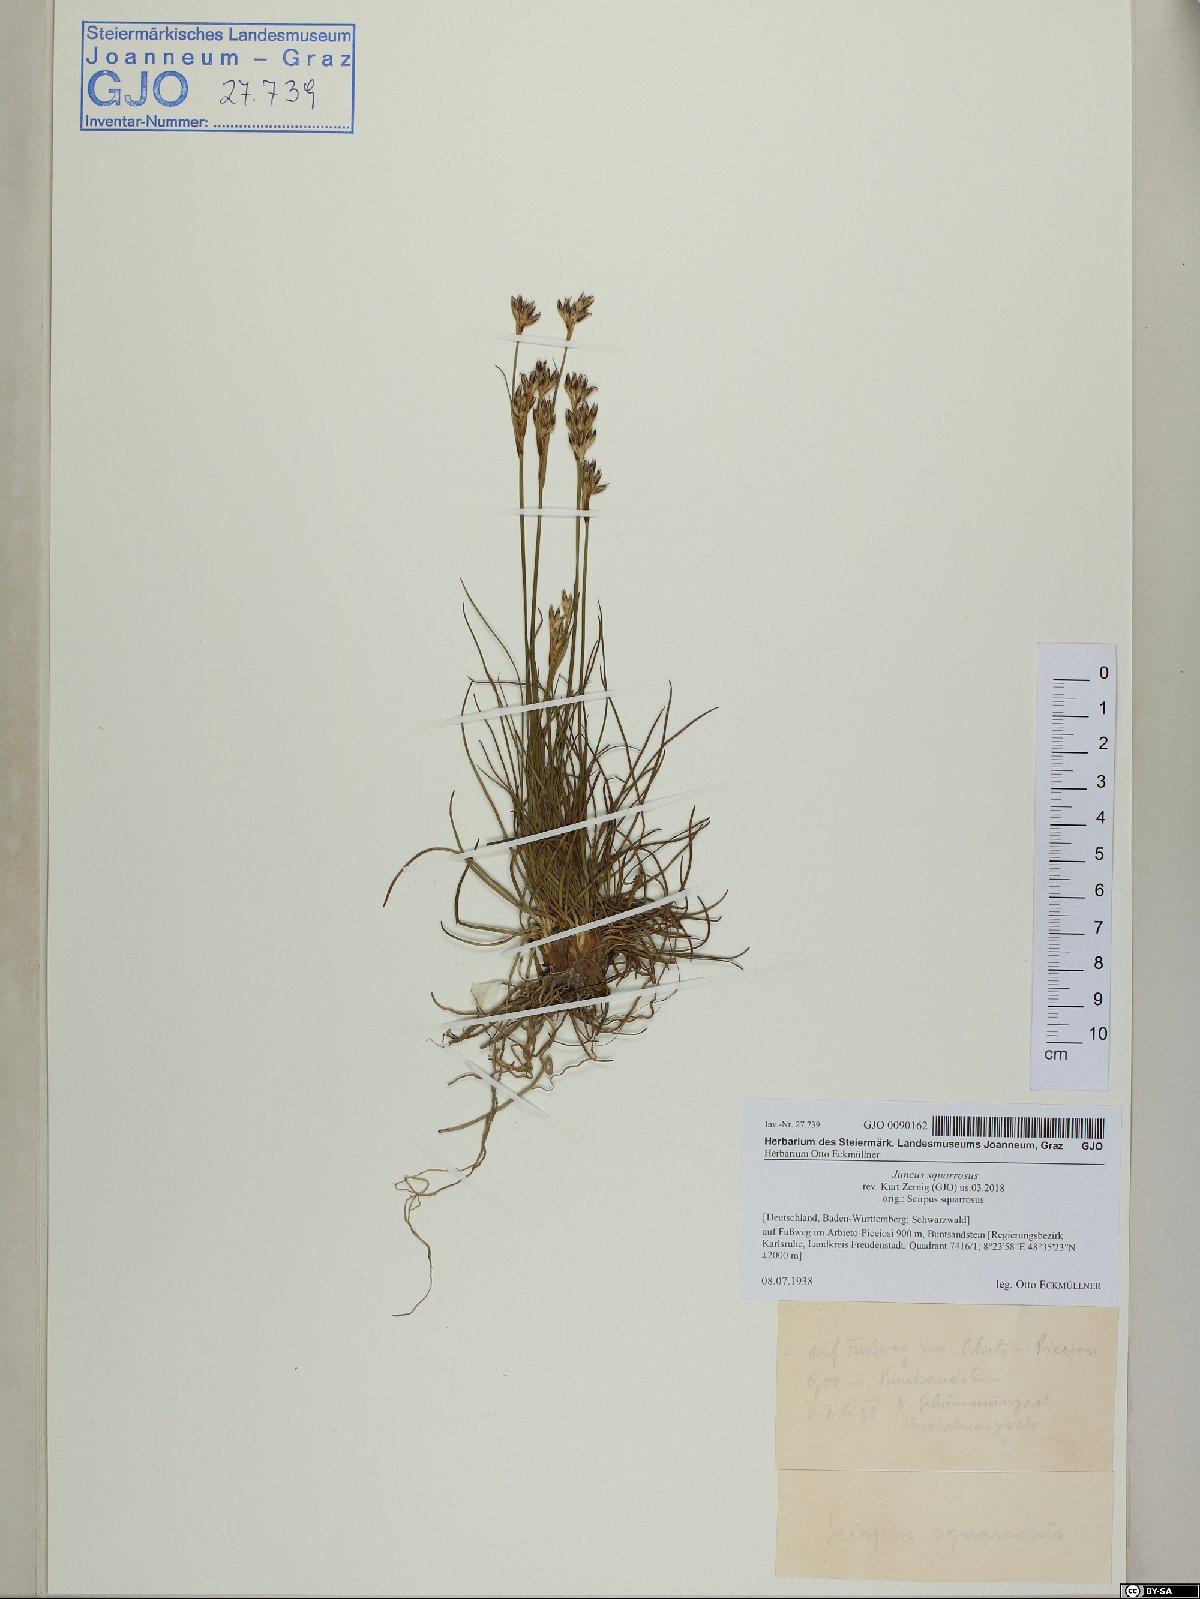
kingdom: Plantae
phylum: Tracheophyta
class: Liliopsida
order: Poales
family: Juncaceae
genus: Juncus
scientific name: Juncus squarrosus
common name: Heath rush
